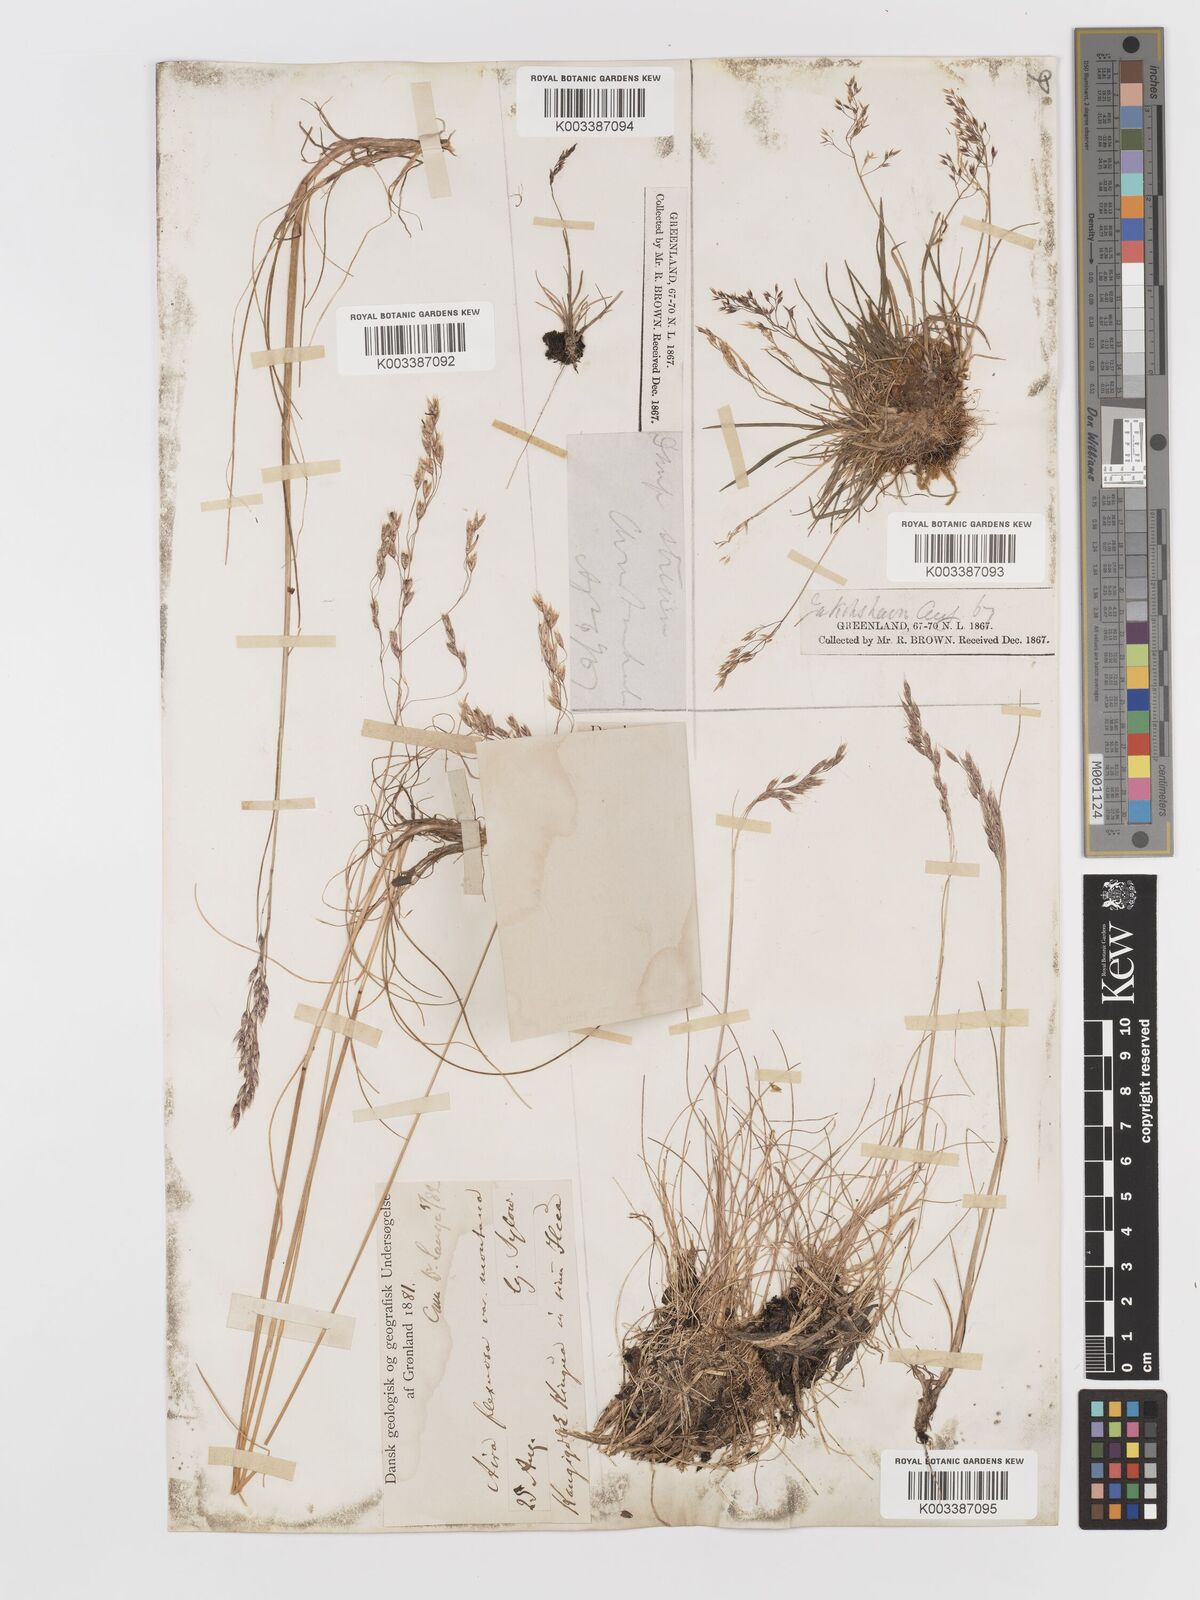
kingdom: Plantae
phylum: Tracheophyta
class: Liliopsida
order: Poales
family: Poaceae
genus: Avenella
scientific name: Avenella flexuosa
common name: Wavy hairgrass
